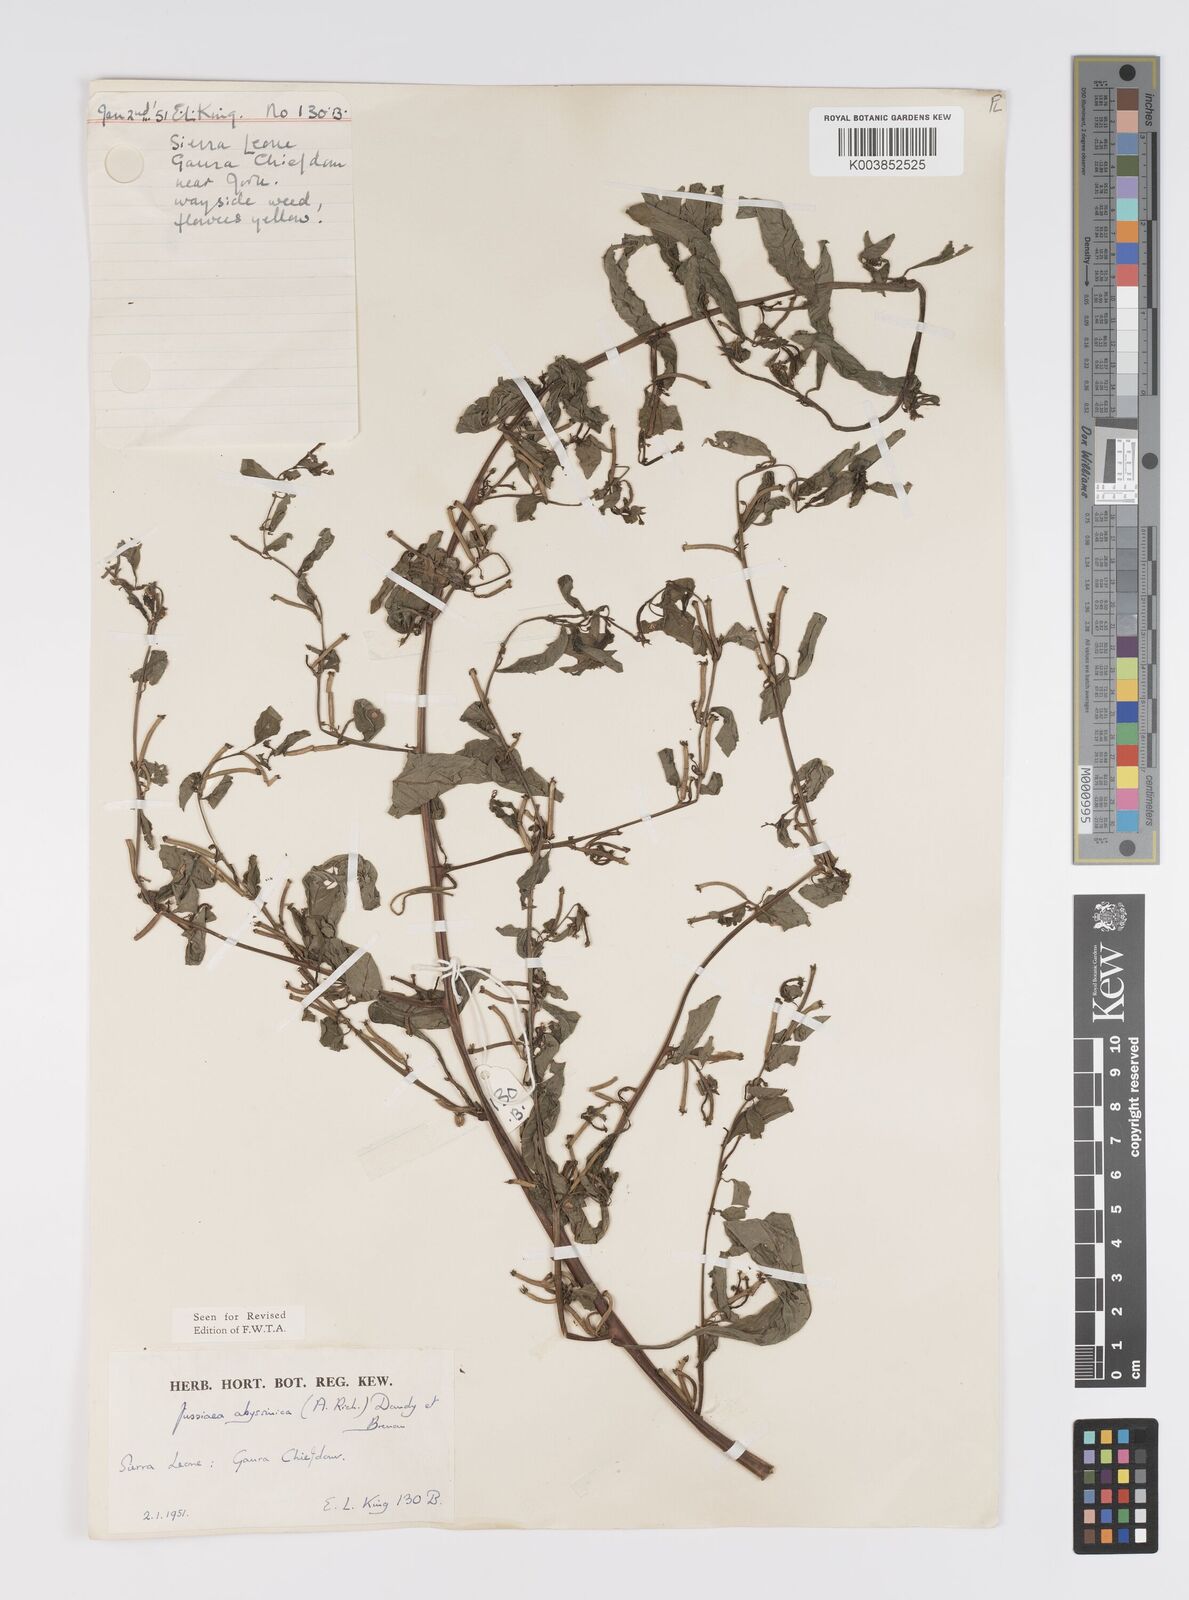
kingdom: Plantae
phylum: Tracheophyta
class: Magnoliopsida
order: Myrtales
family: Onagraceae
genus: Ludwigia
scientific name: Ludwigia abyssinica
